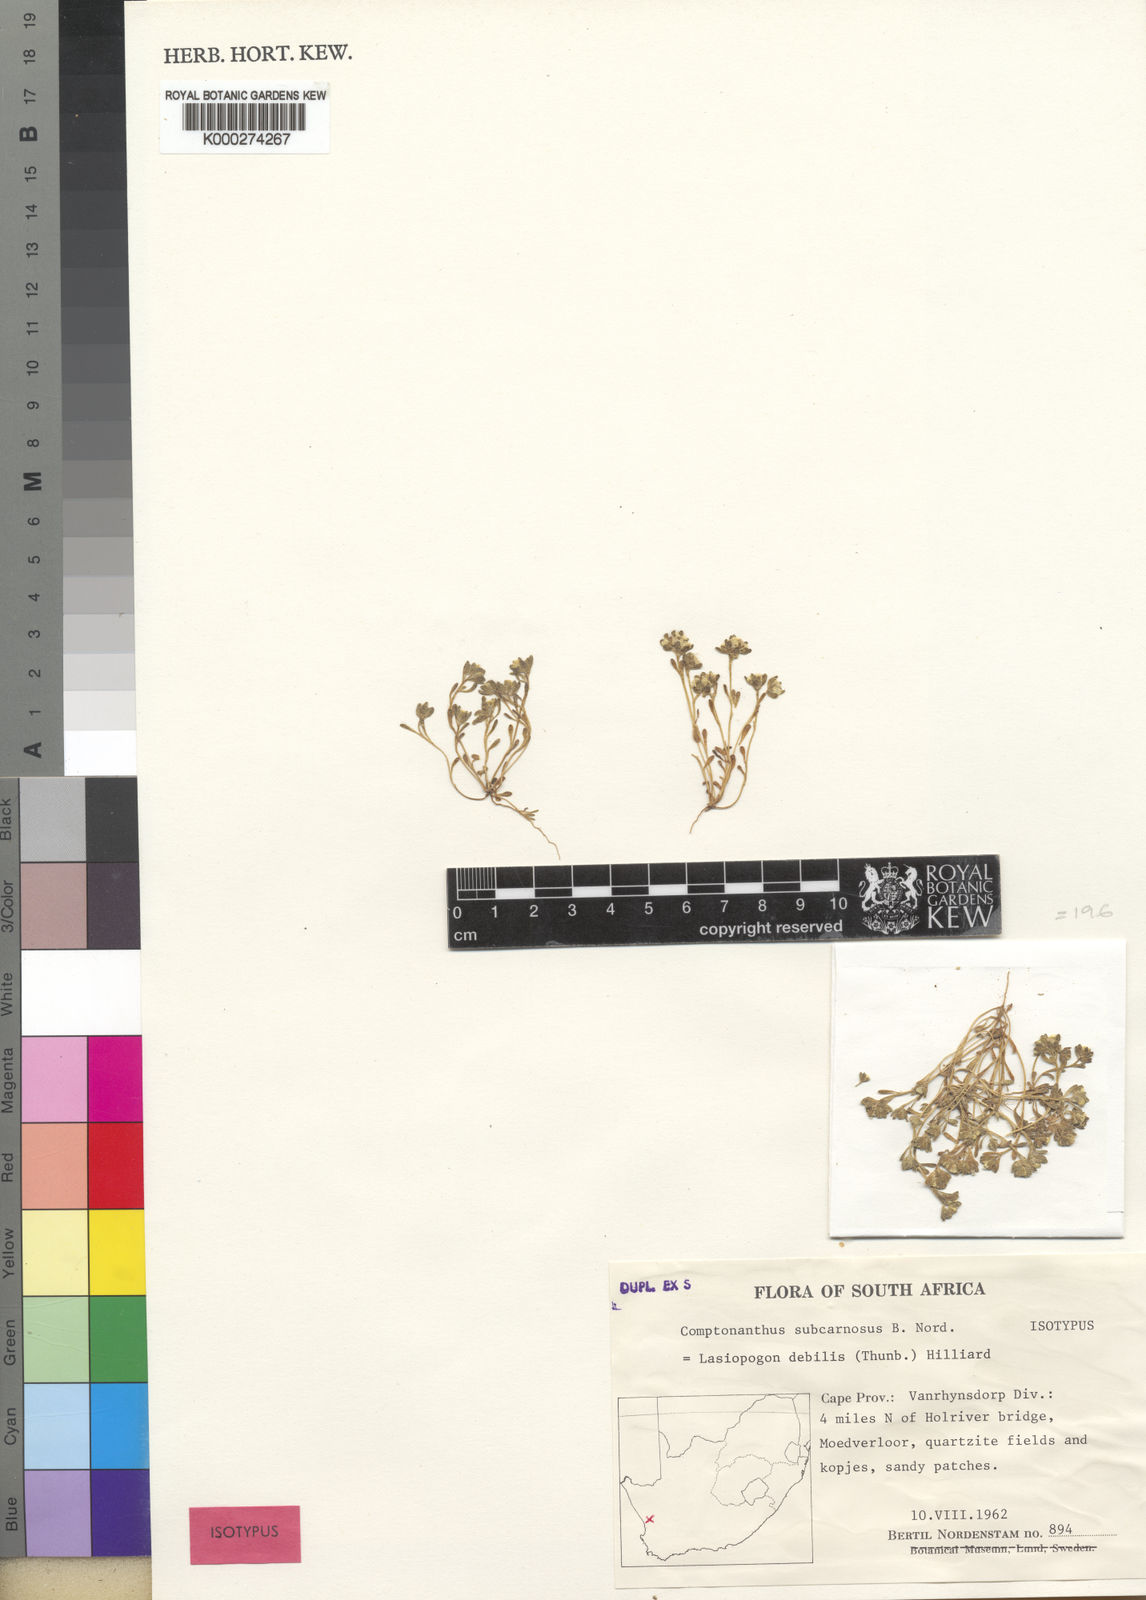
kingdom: Plantae
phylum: Tracheophyta
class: Magnoliopsida
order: Asterales
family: Asteraceae
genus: Ifloga
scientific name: Ifloga
